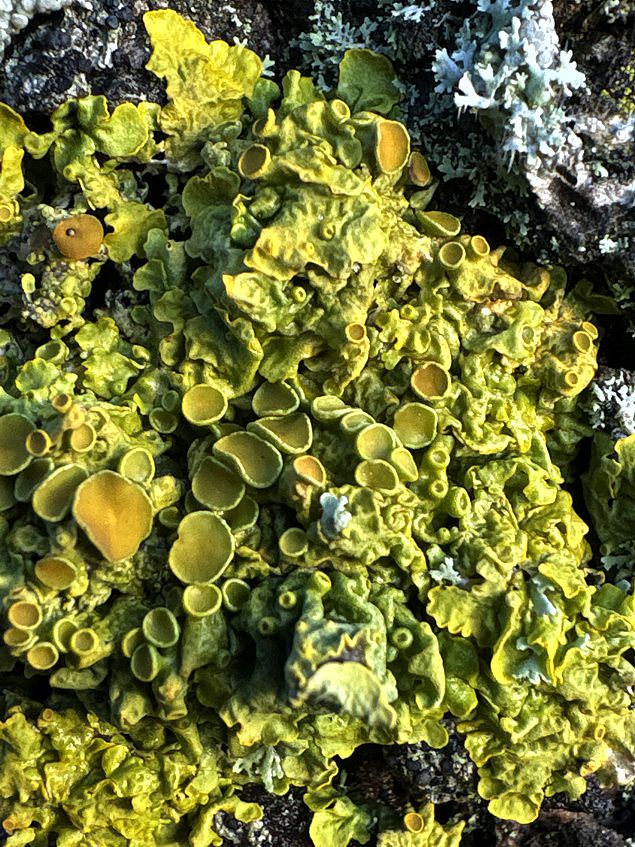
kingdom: Fungi
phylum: Ascomycota
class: Lecanoromycetes
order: Teloschistales
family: Teloschistaceae
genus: Xanthoria
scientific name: Xanthoria parietina
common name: almindelig væggelav
